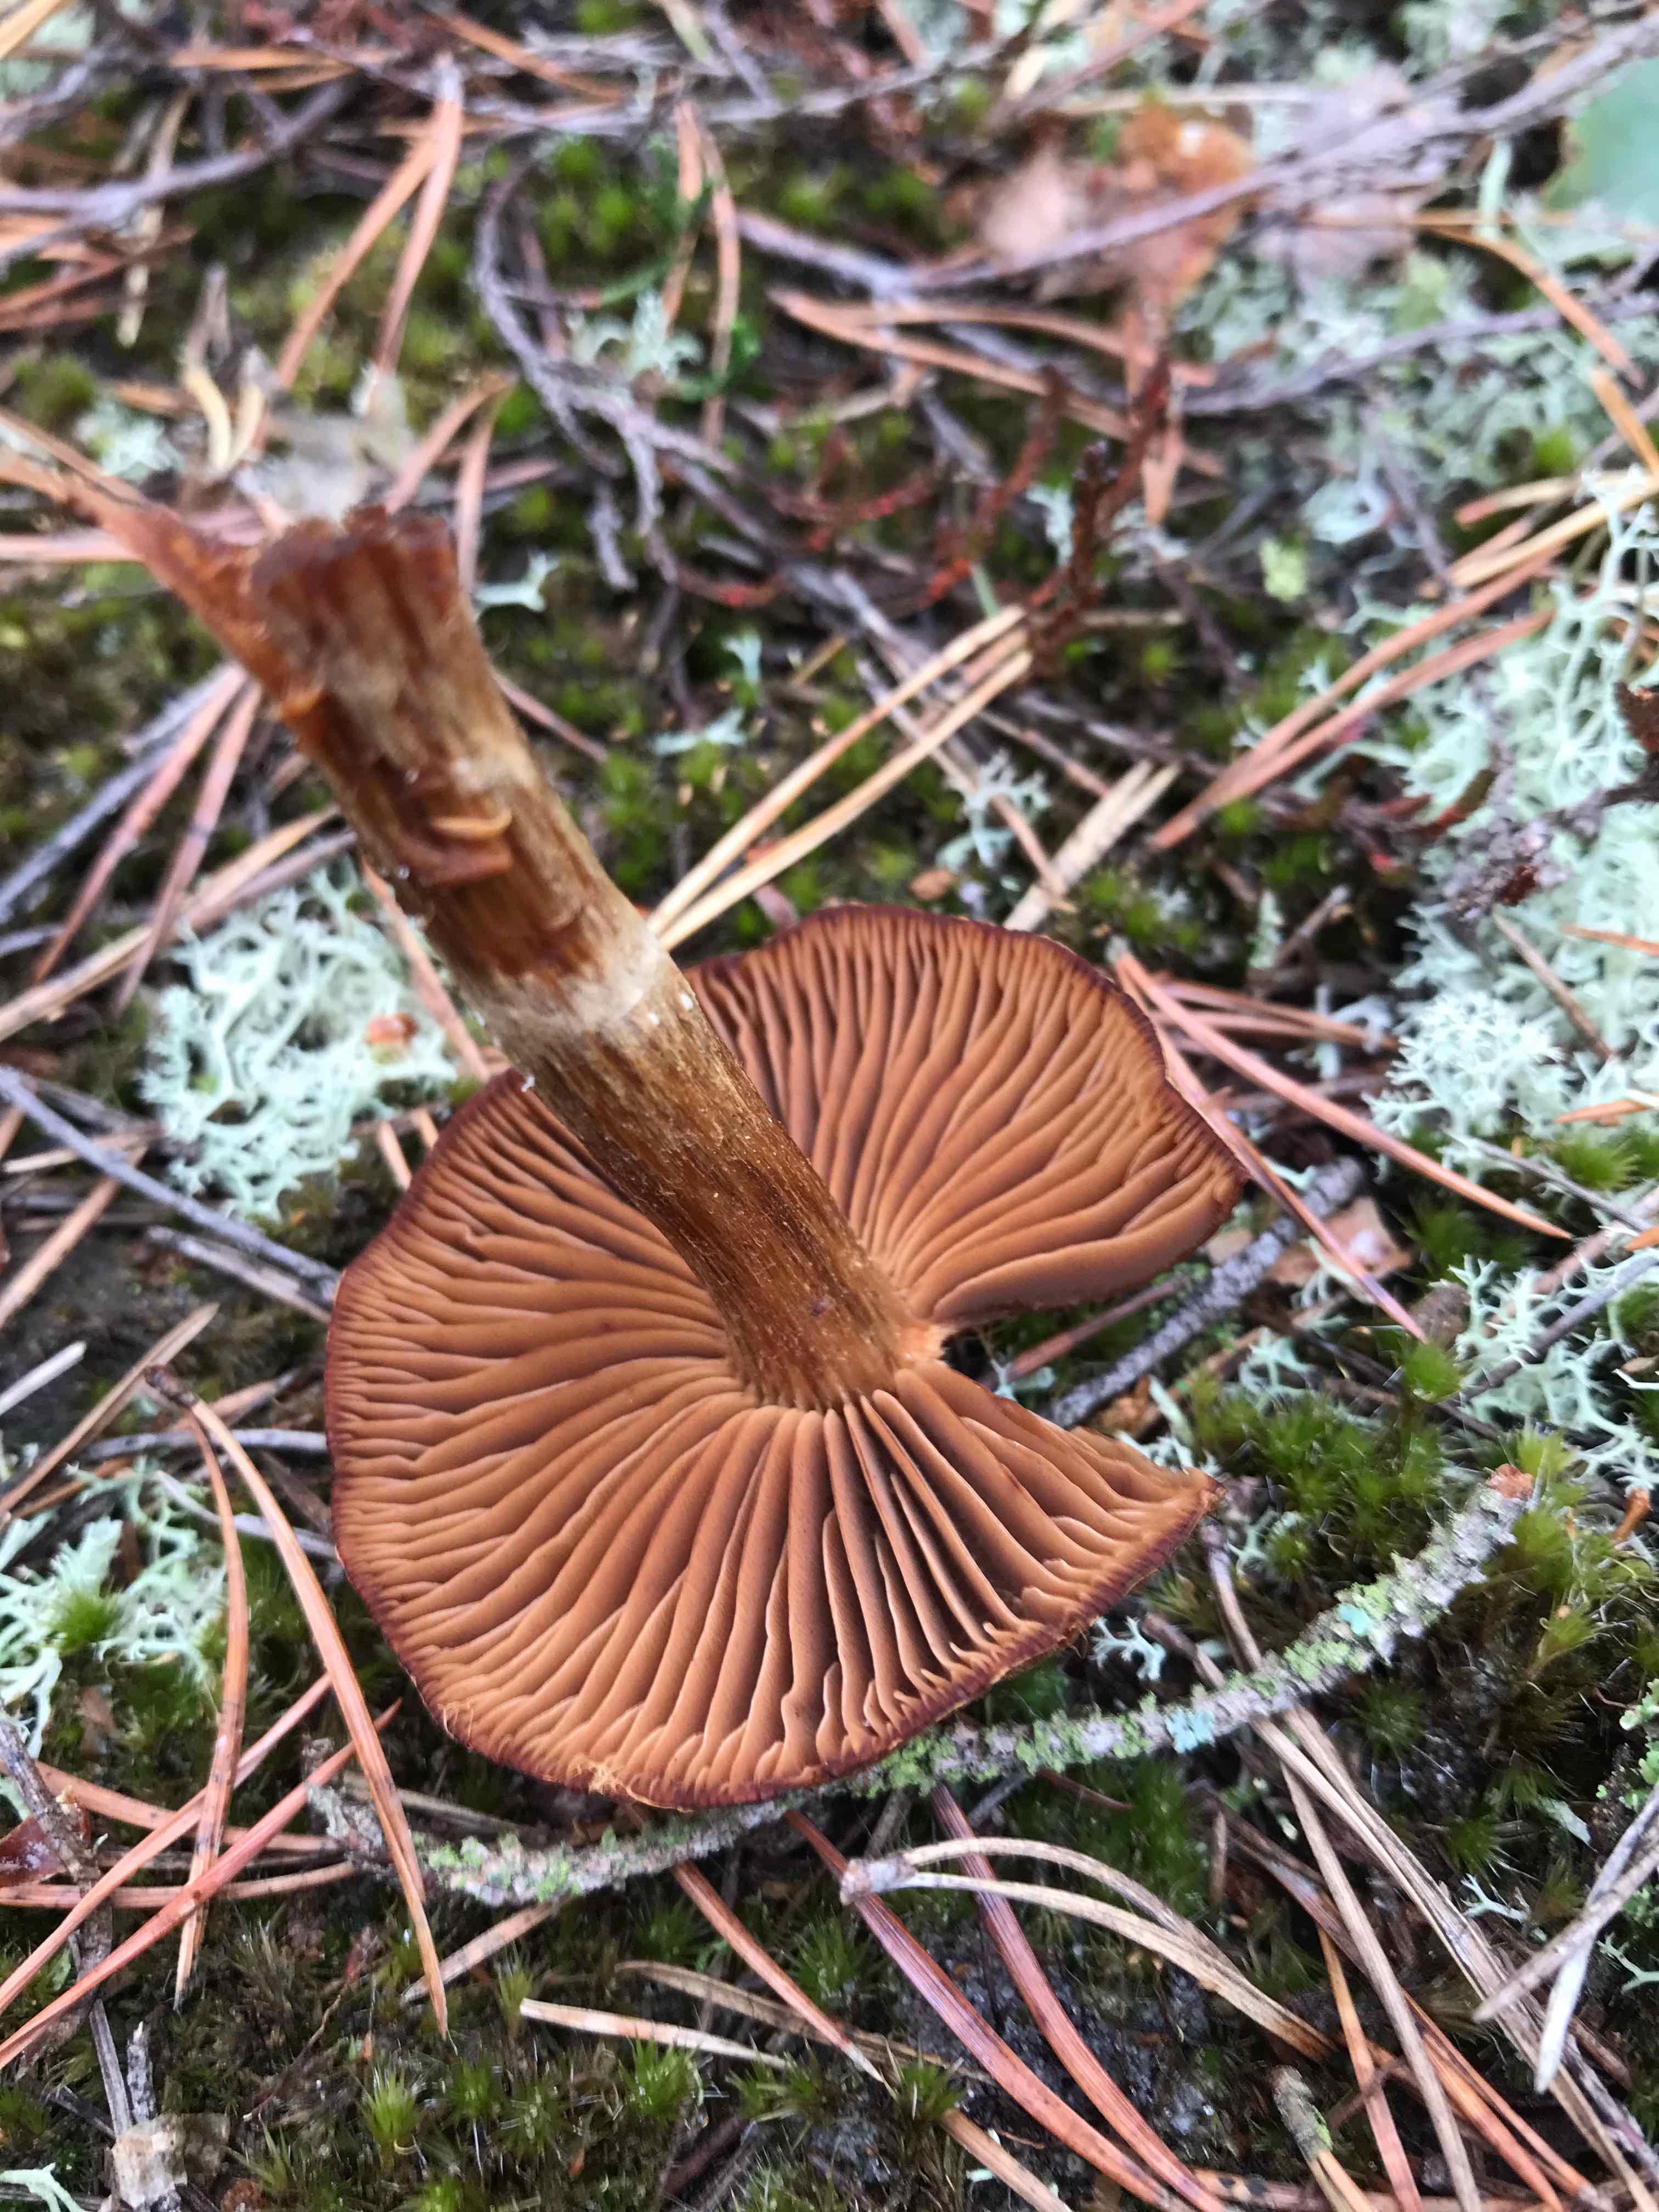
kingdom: Fungi
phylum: Basidiomycota
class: Agaricomycetes
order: Agaricales
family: Cortinariaceae
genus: Cortinarius
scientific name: Cortinarius
